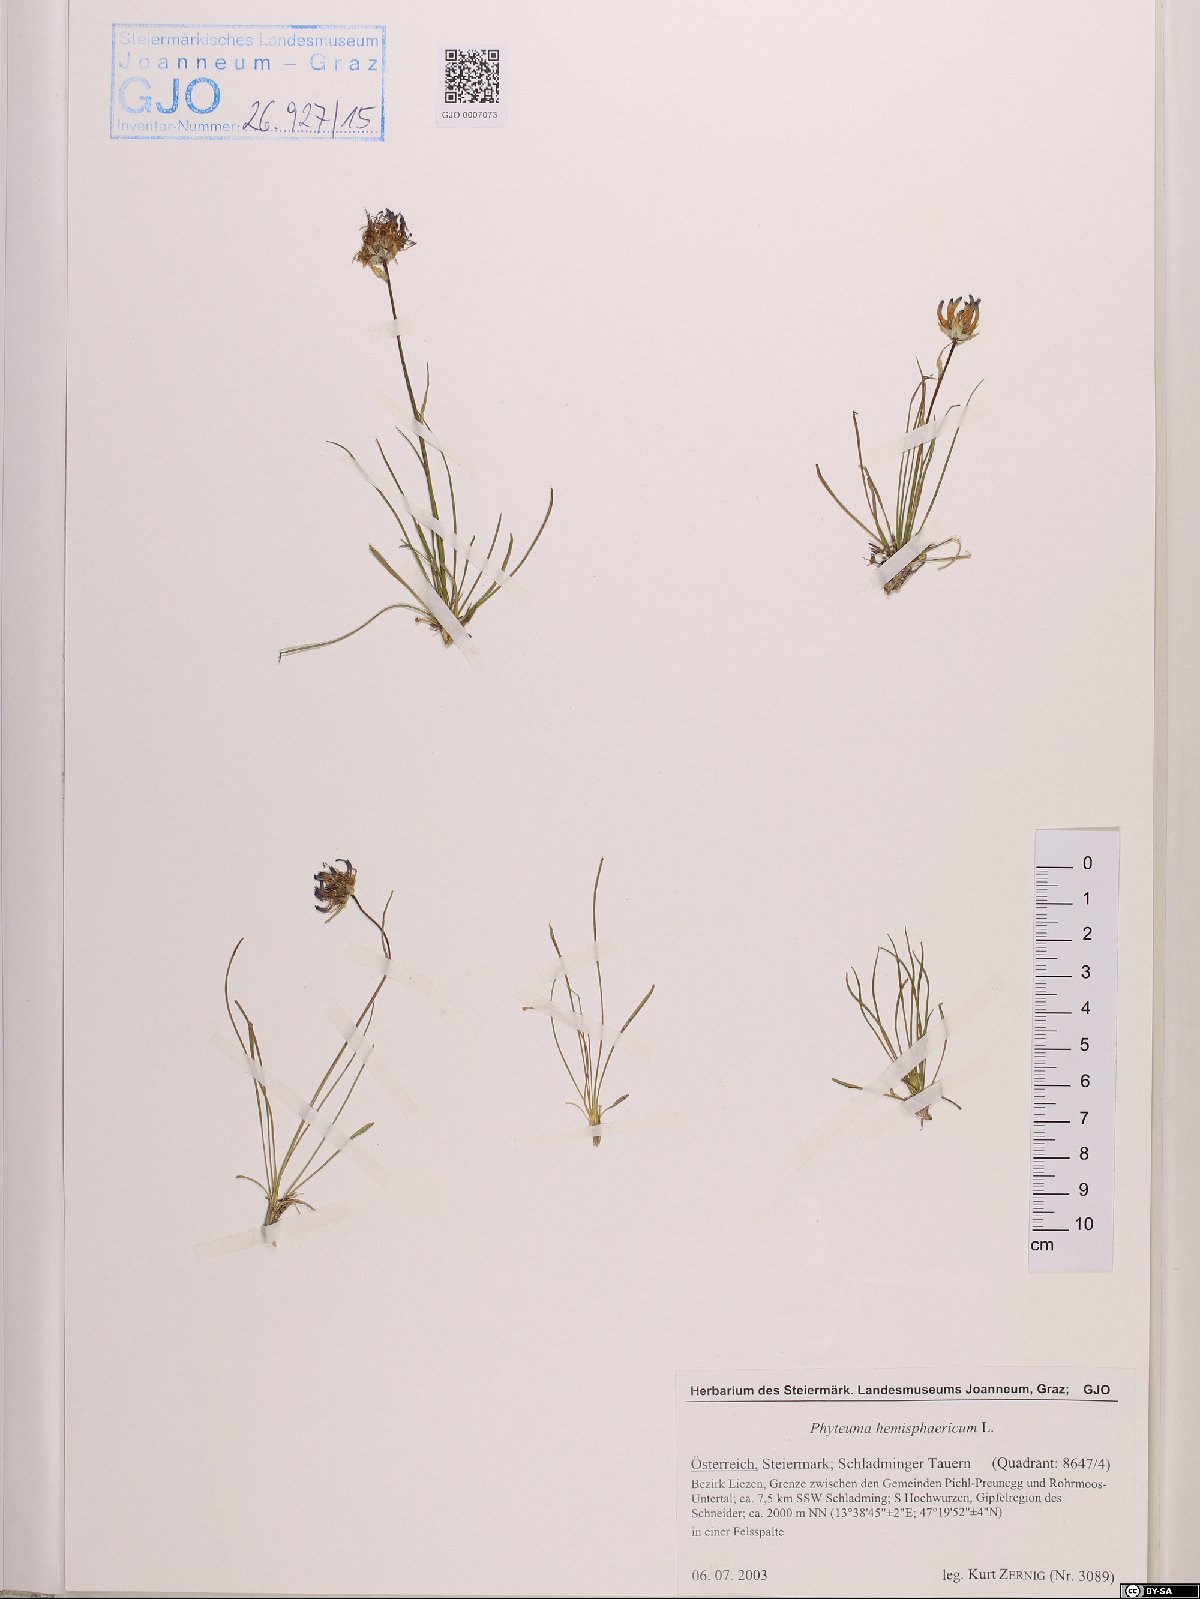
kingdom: Plantae
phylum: Tracheophyta
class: Magnoliopsida
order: Asterales
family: Campanulaceae
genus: Phyteuma
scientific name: Phyteuma hemisphaericum
